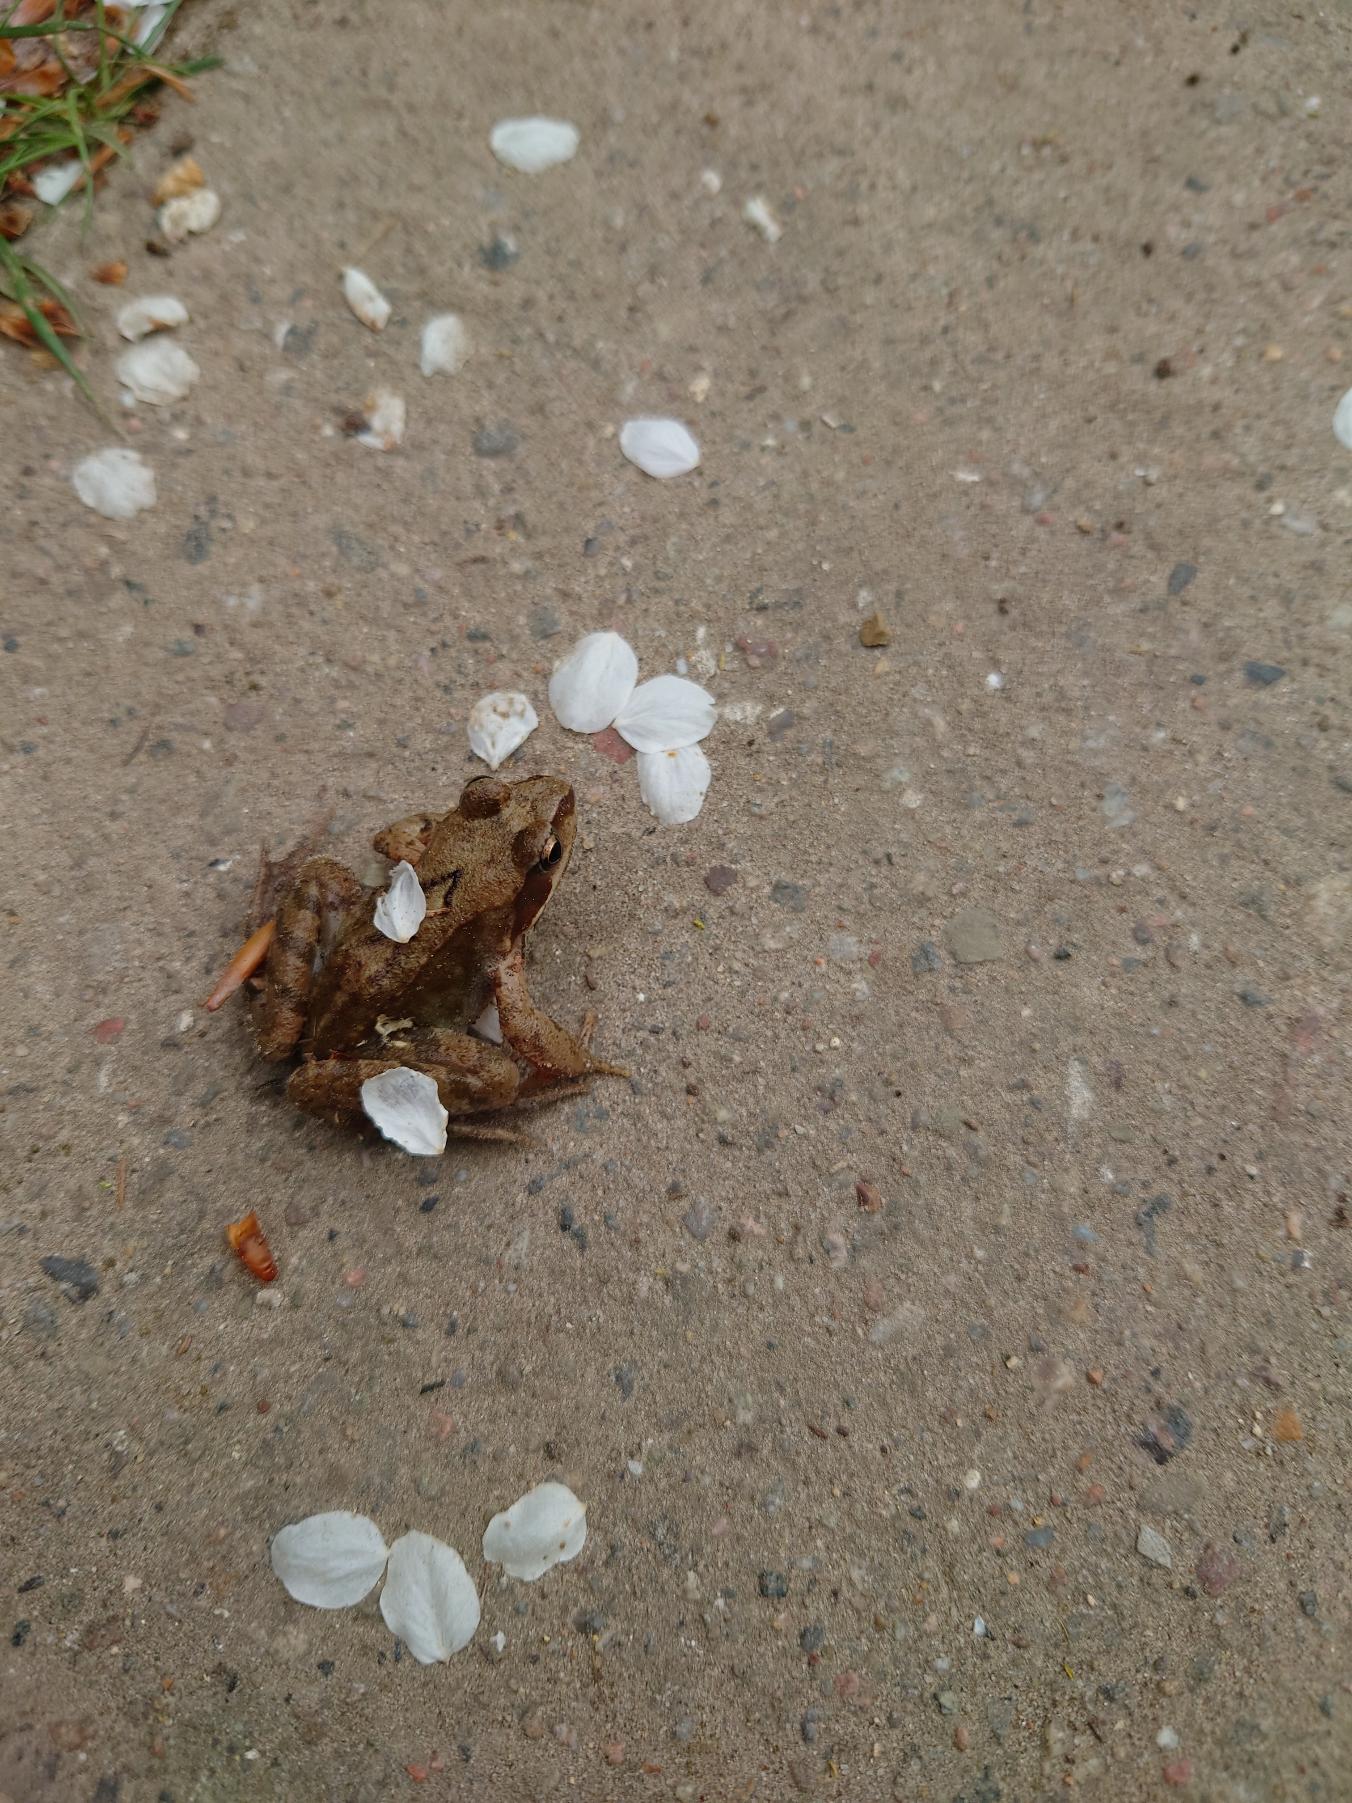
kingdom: Animalia
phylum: Chordata
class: Amphibia
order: Anura
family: Ranidae
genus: Rana
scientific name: Rana temporaria
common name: Butsnudet frø
